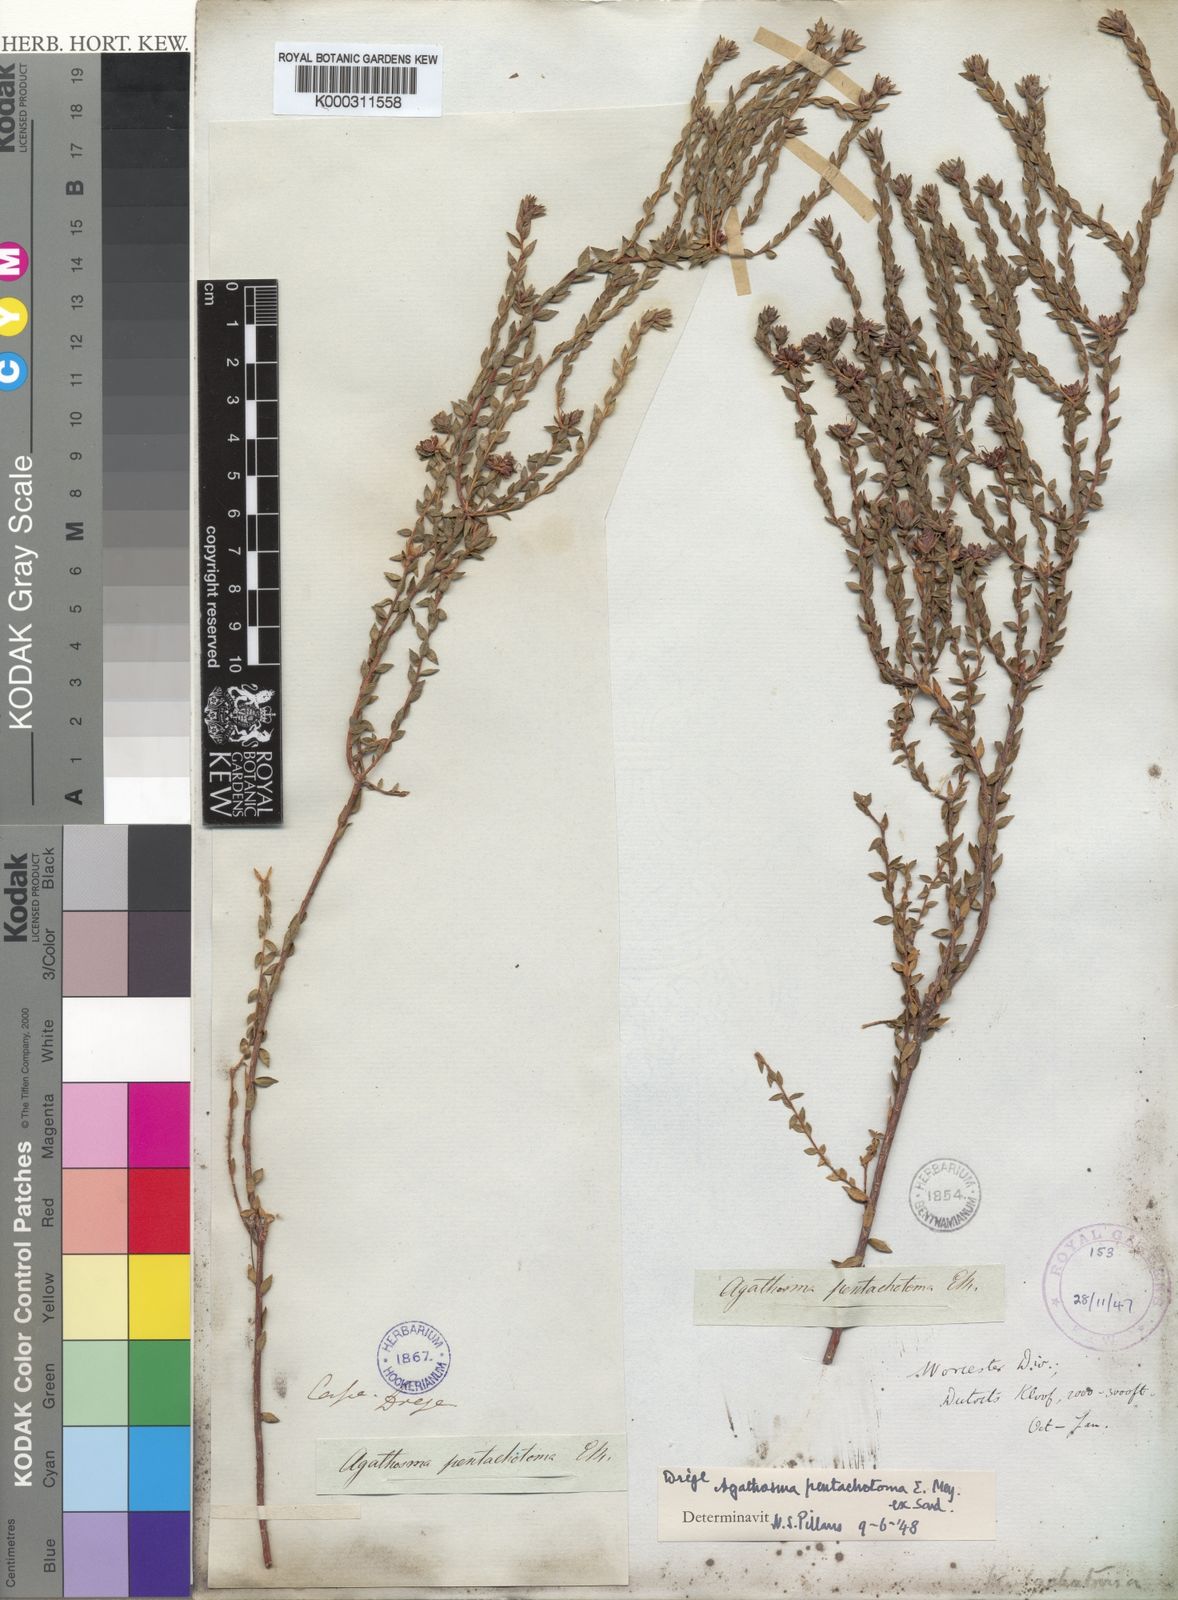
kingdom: Plantae
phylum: Tracheophyta
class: Magnoliopsida
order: Sapindales
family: Rutaceae
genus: Agathosma
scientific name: Agathosma pentachotoma
